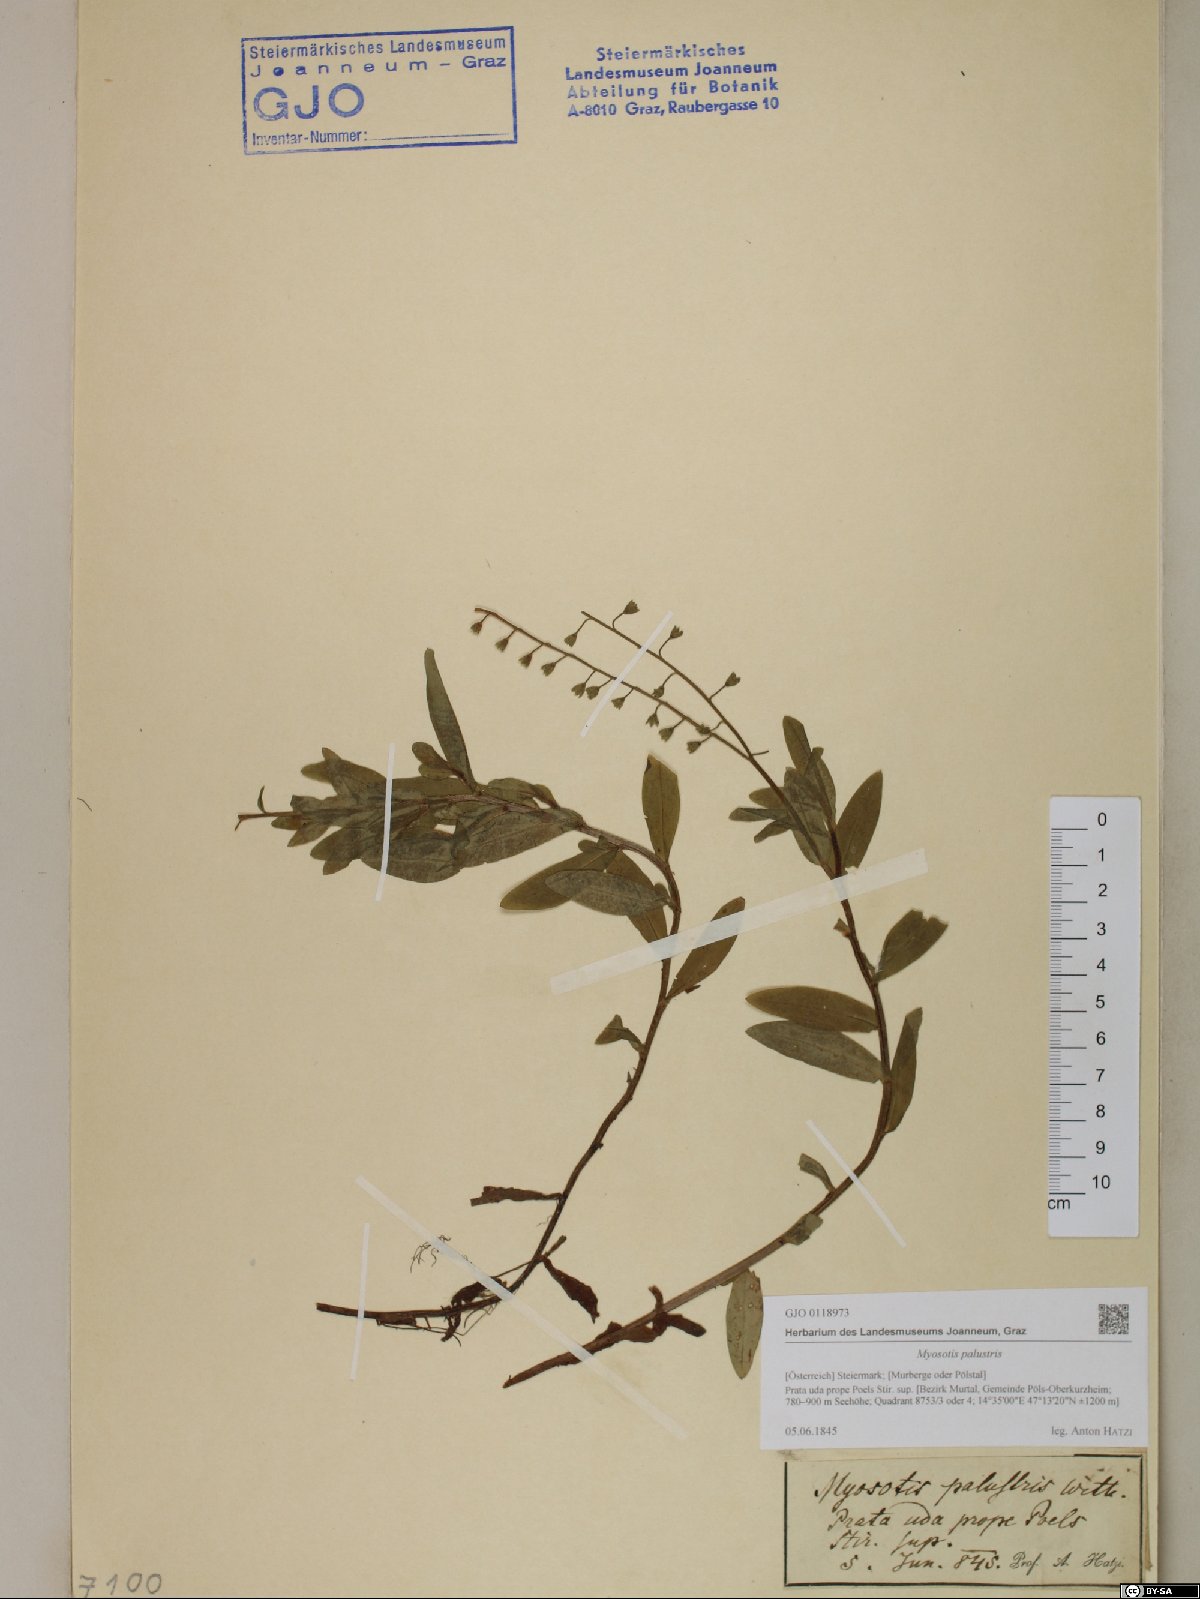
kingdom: Plantae
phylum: Tracheophyta
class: Magnoliopsida
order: Boraginales
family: Boraginaceae
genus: Myosotis
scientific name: Myosotis scorpioides
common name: Water forget-me-not
